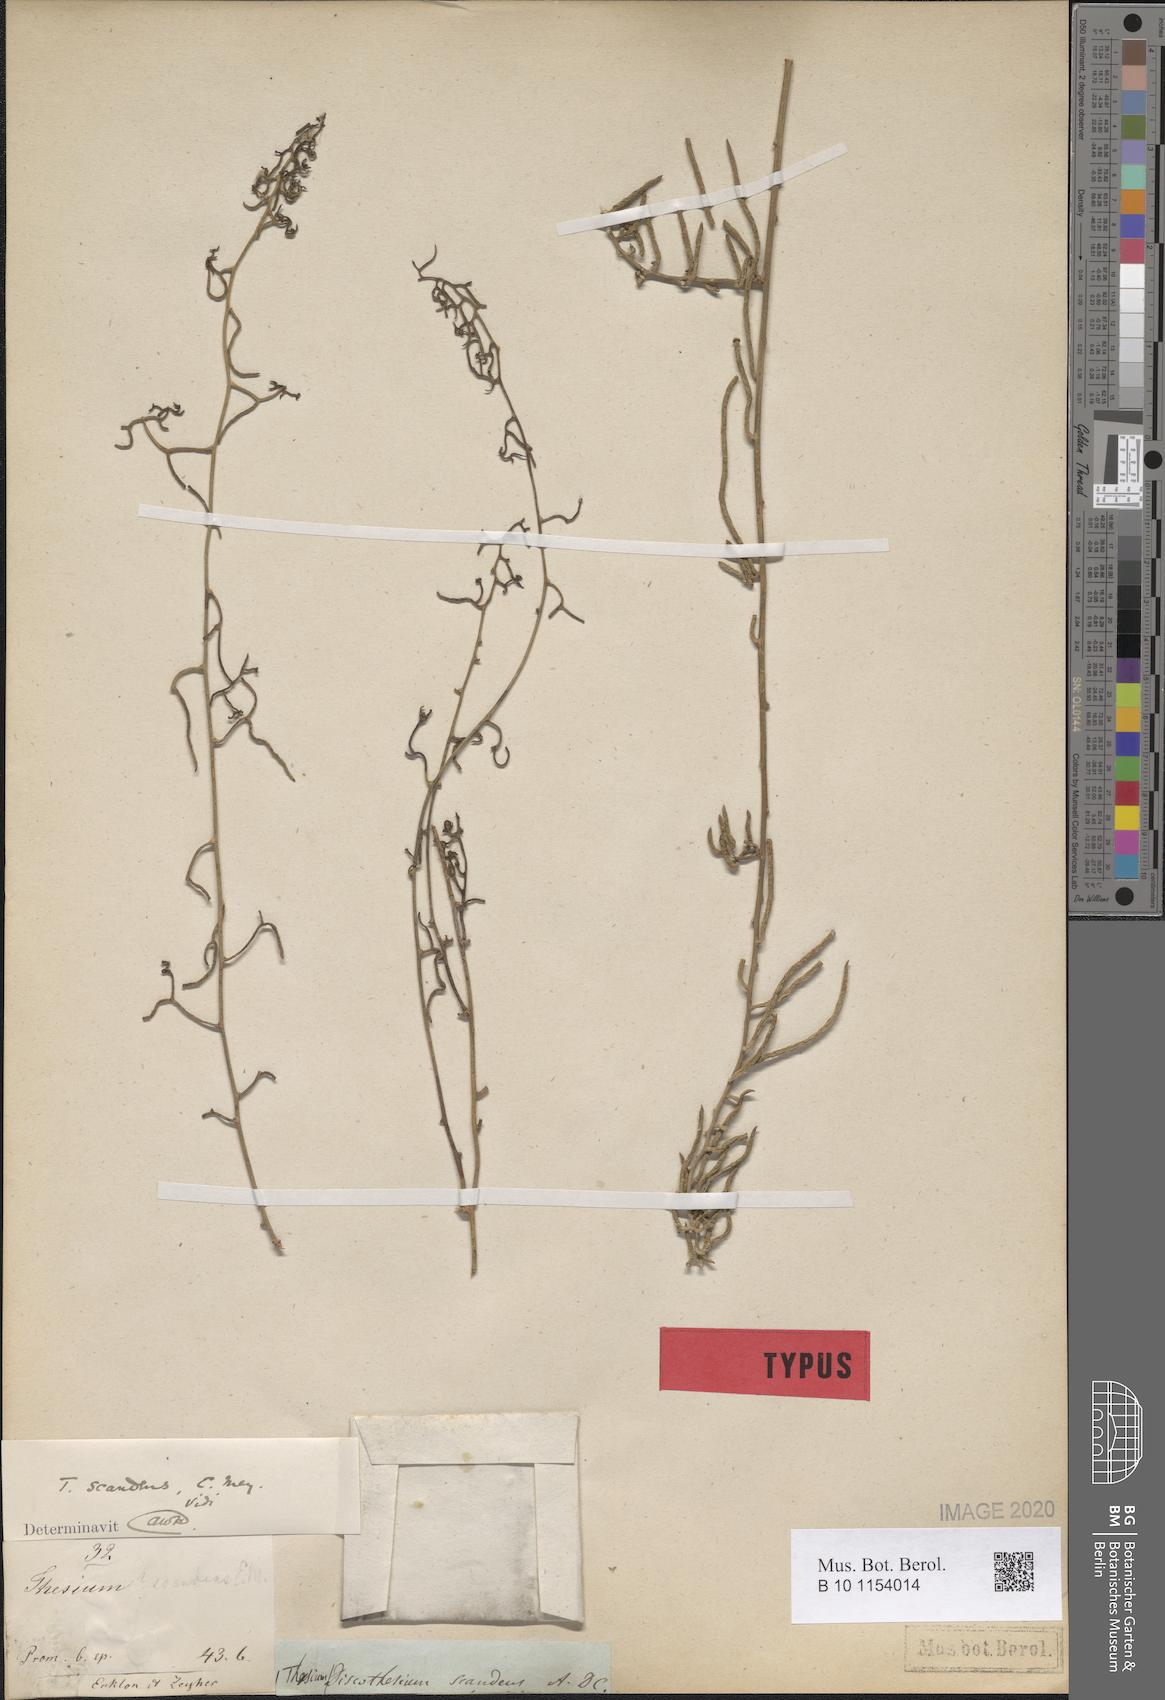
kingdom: Plantae
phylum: Tracheophyta
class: Magnoliopsida
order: Santalales
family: Thesiaceae
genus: Thesium
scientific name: Thesium triflorum
